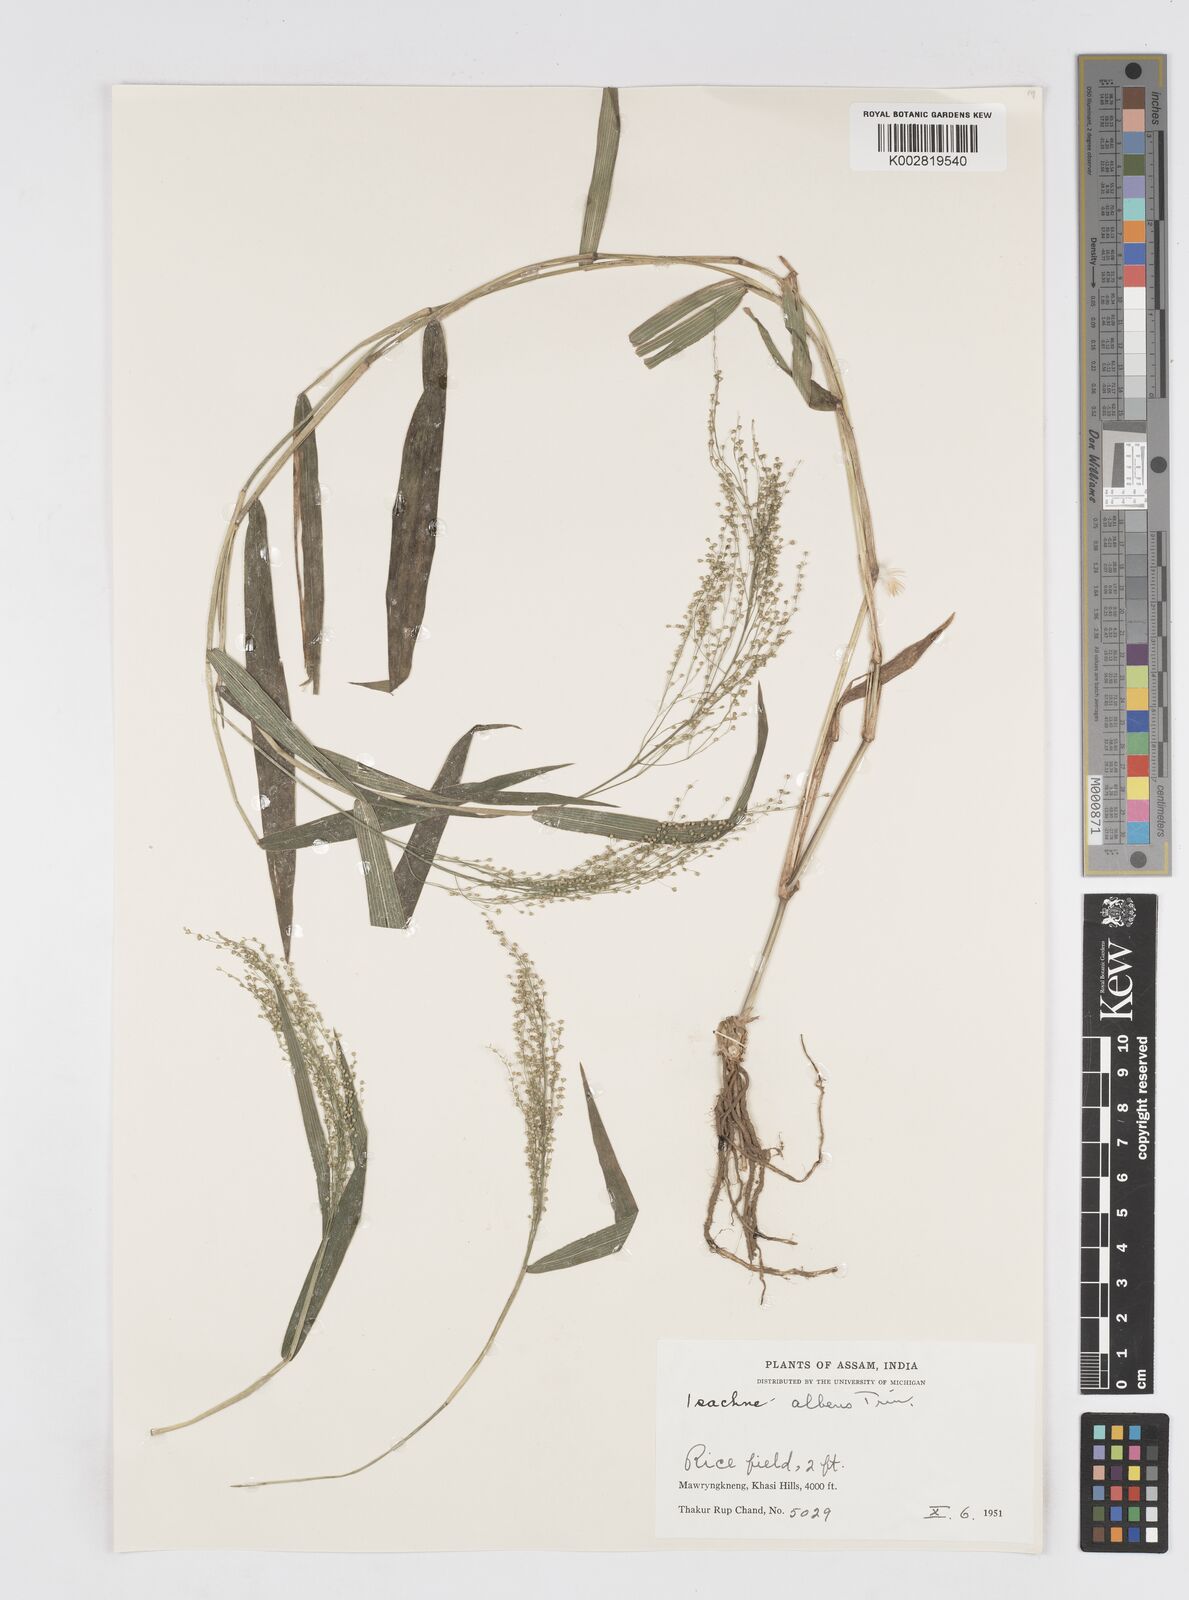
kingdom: Plantae
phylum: Tracheophyta
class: Liliopsida
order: Poales
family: Poaceae
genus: Isachne
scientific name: Isachne albens
